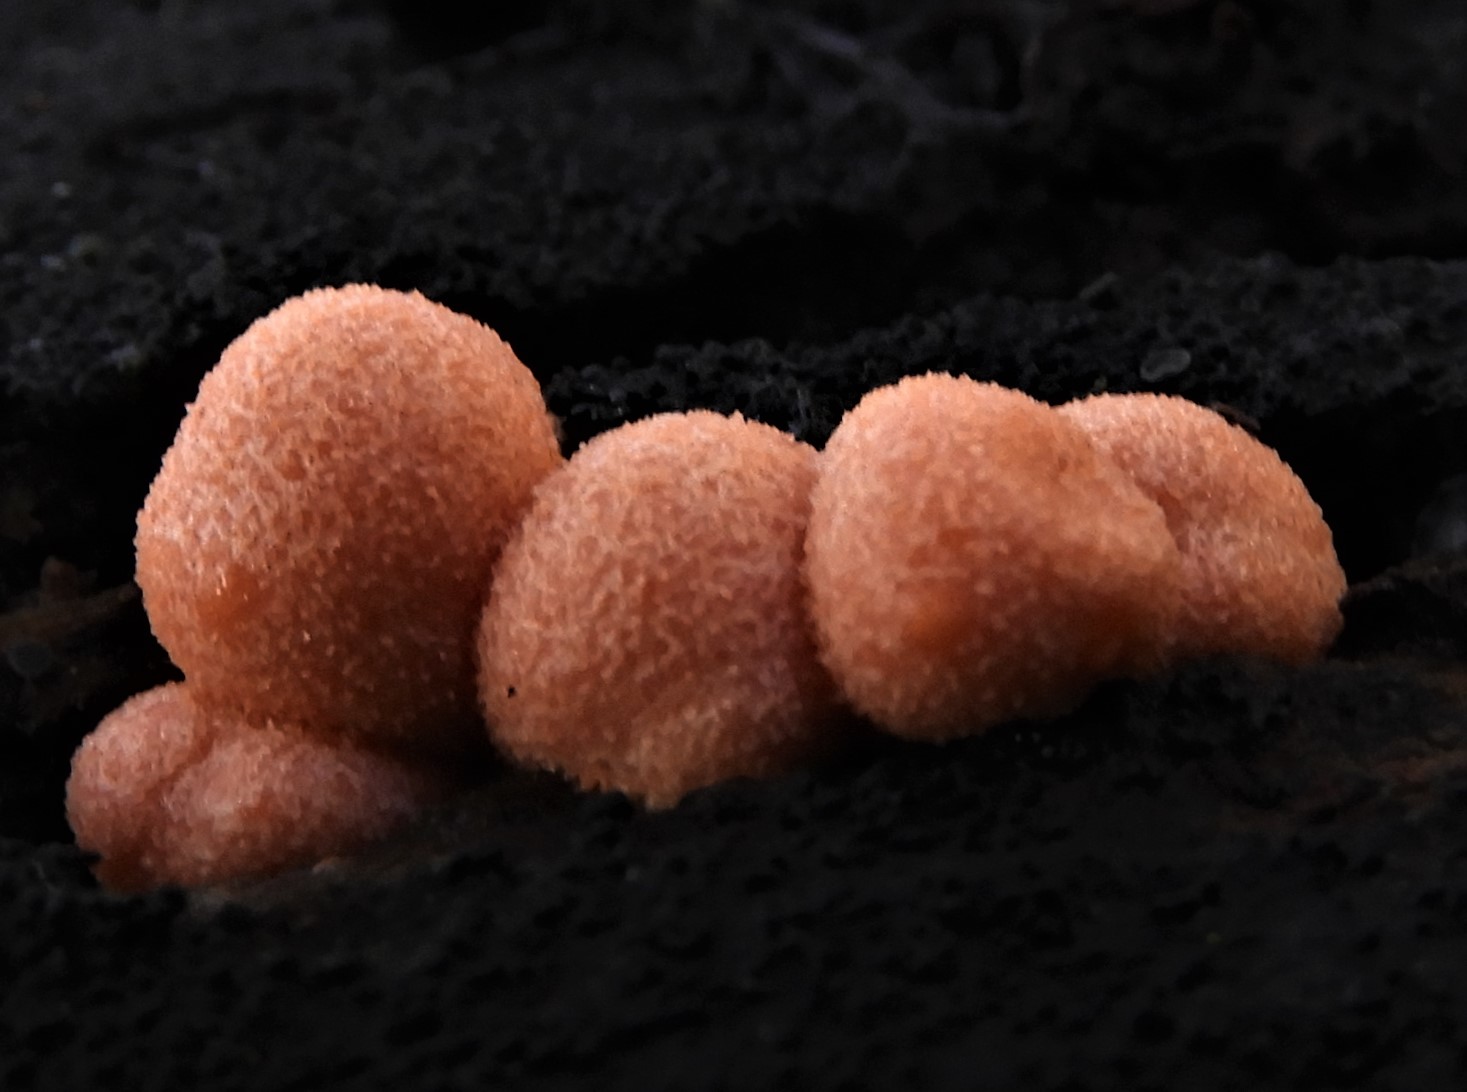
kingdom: Protozoa
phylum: Mycetozoa
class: Myxomycetes
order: Cribrariales
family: Tubiferaceae
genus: Lycogala
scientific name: Lycogala epidendrum
